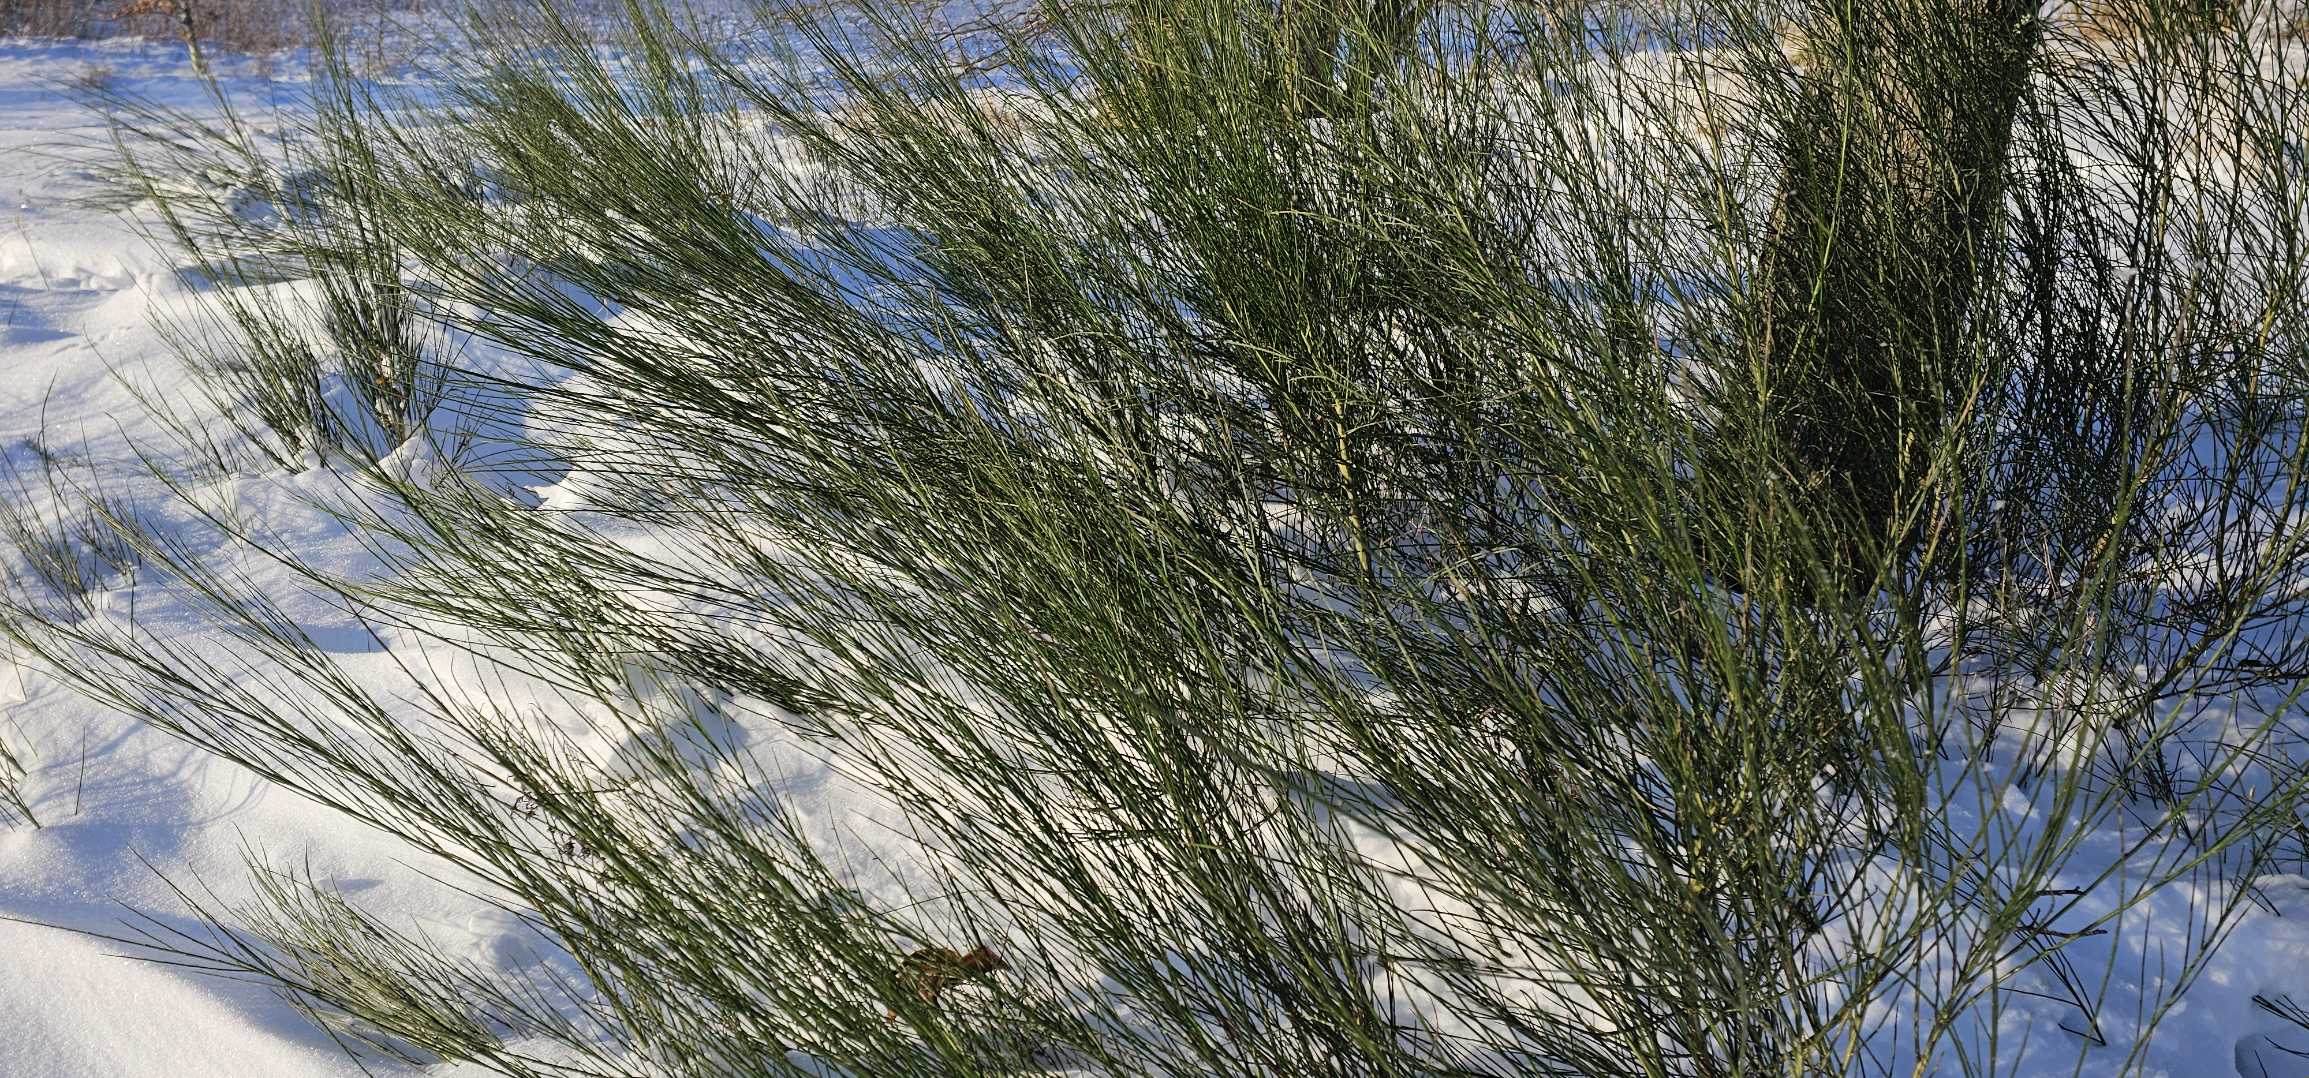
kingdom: Plantae
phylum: Tracheophyta
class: Magnoliopsida
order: Fabales
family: Fabaceae
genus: Cytisus
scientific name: Cytisus scoparius
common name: Almindelig gyvel
